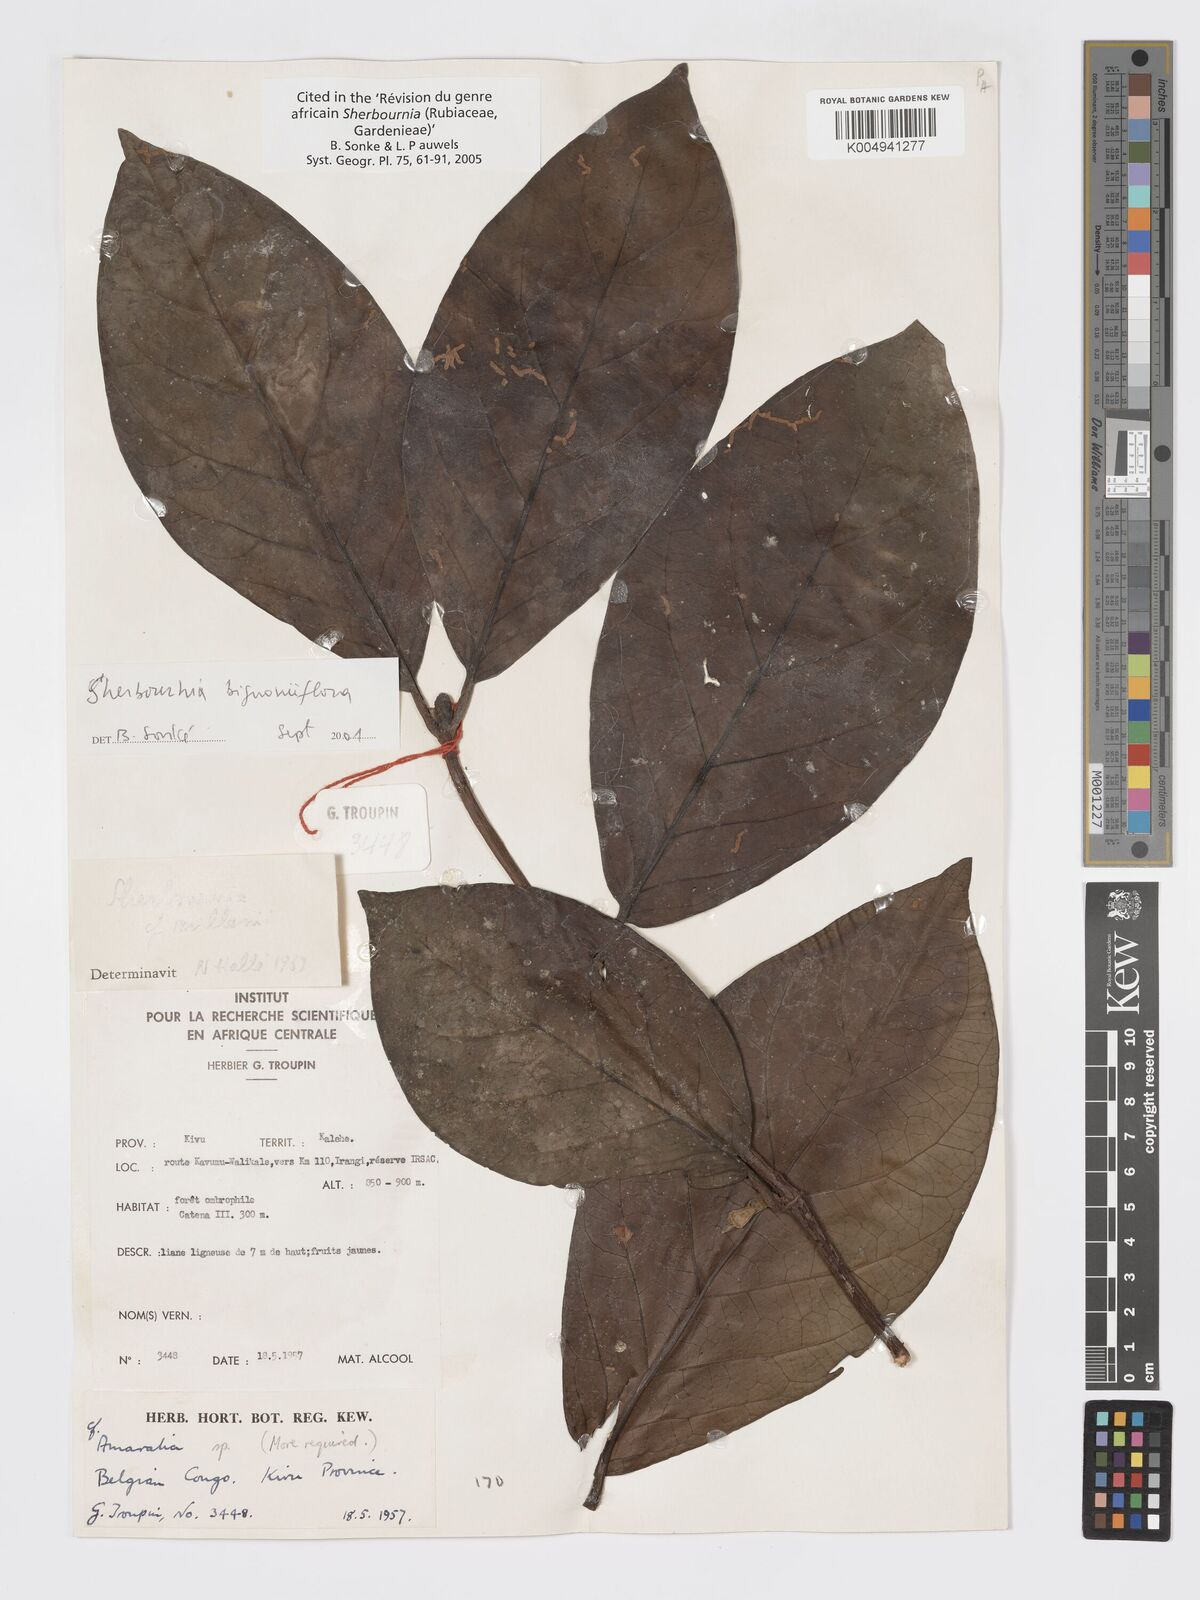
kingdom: Plantae
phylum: Tracheophyta
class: Magnoliopsida
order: Gentianales
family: Rubiaceae
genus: Sherbournia
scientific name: Sherbournia bignoniiflora
